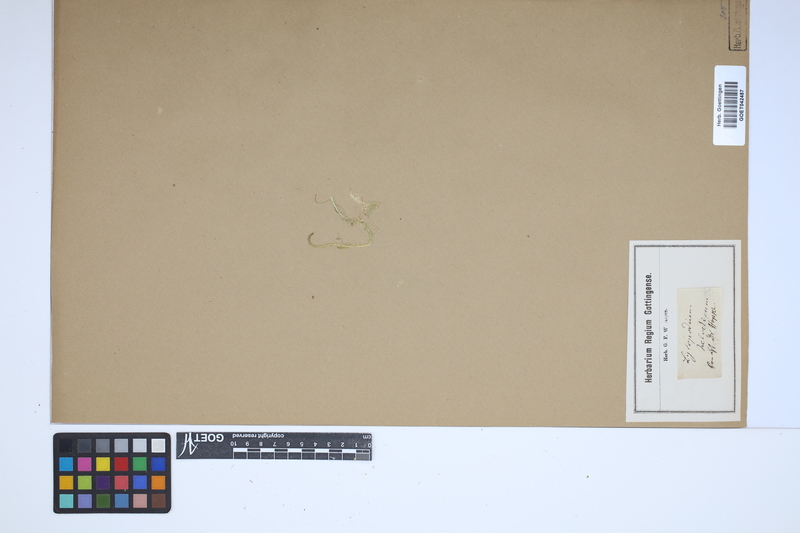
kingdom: Plantae
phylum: Tracheophyta
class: Lycopodiopsida
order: Selaginellales
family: Selaginellaceae
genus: Selaginella
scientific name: Selaginella helvetica
